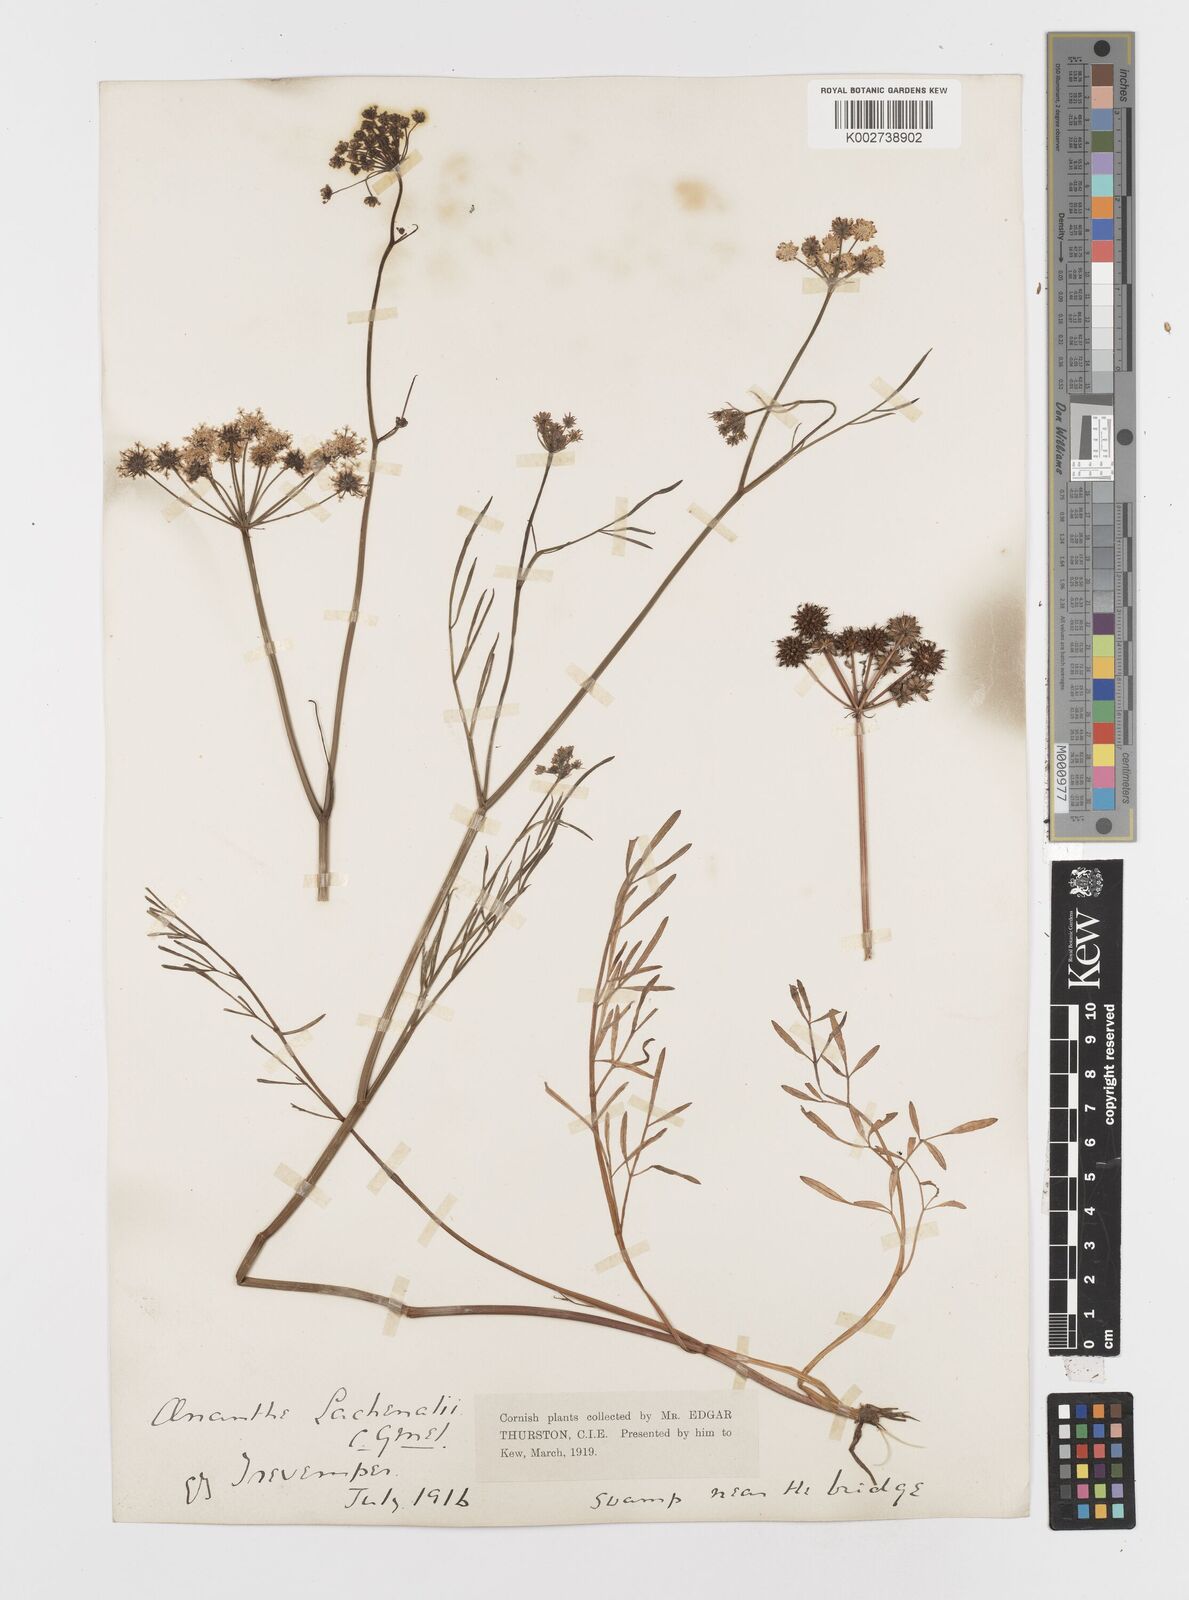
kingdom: Plantae
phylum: Tracheophyta
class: Magnoliopsida
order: Apiales
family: Apiaceae
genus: Oenanthe
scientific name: Oenanthe lachenalii
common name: Parsley water-dropwort
